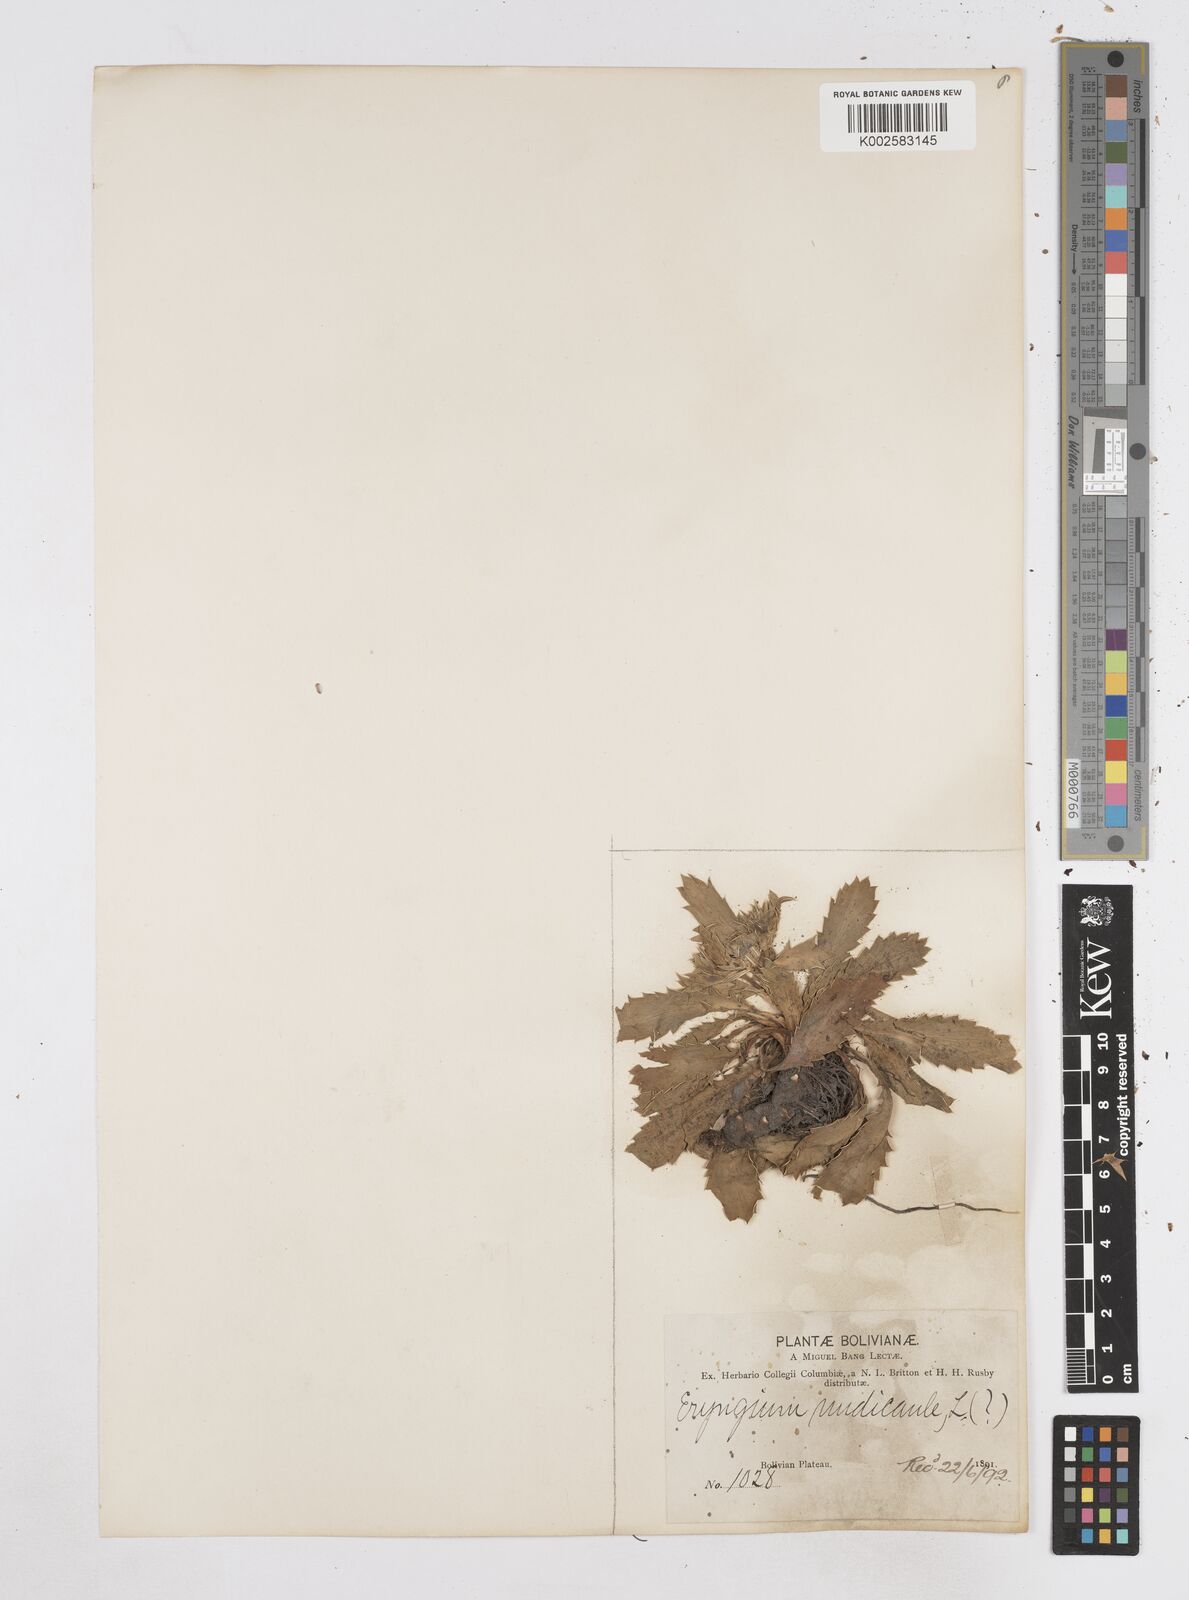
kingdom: Plantae
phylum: Tracheophyta
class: Magnoliopsida
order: Apiales
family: Apiaceae
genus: Eryngium
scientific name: Eryngium nudicaule
